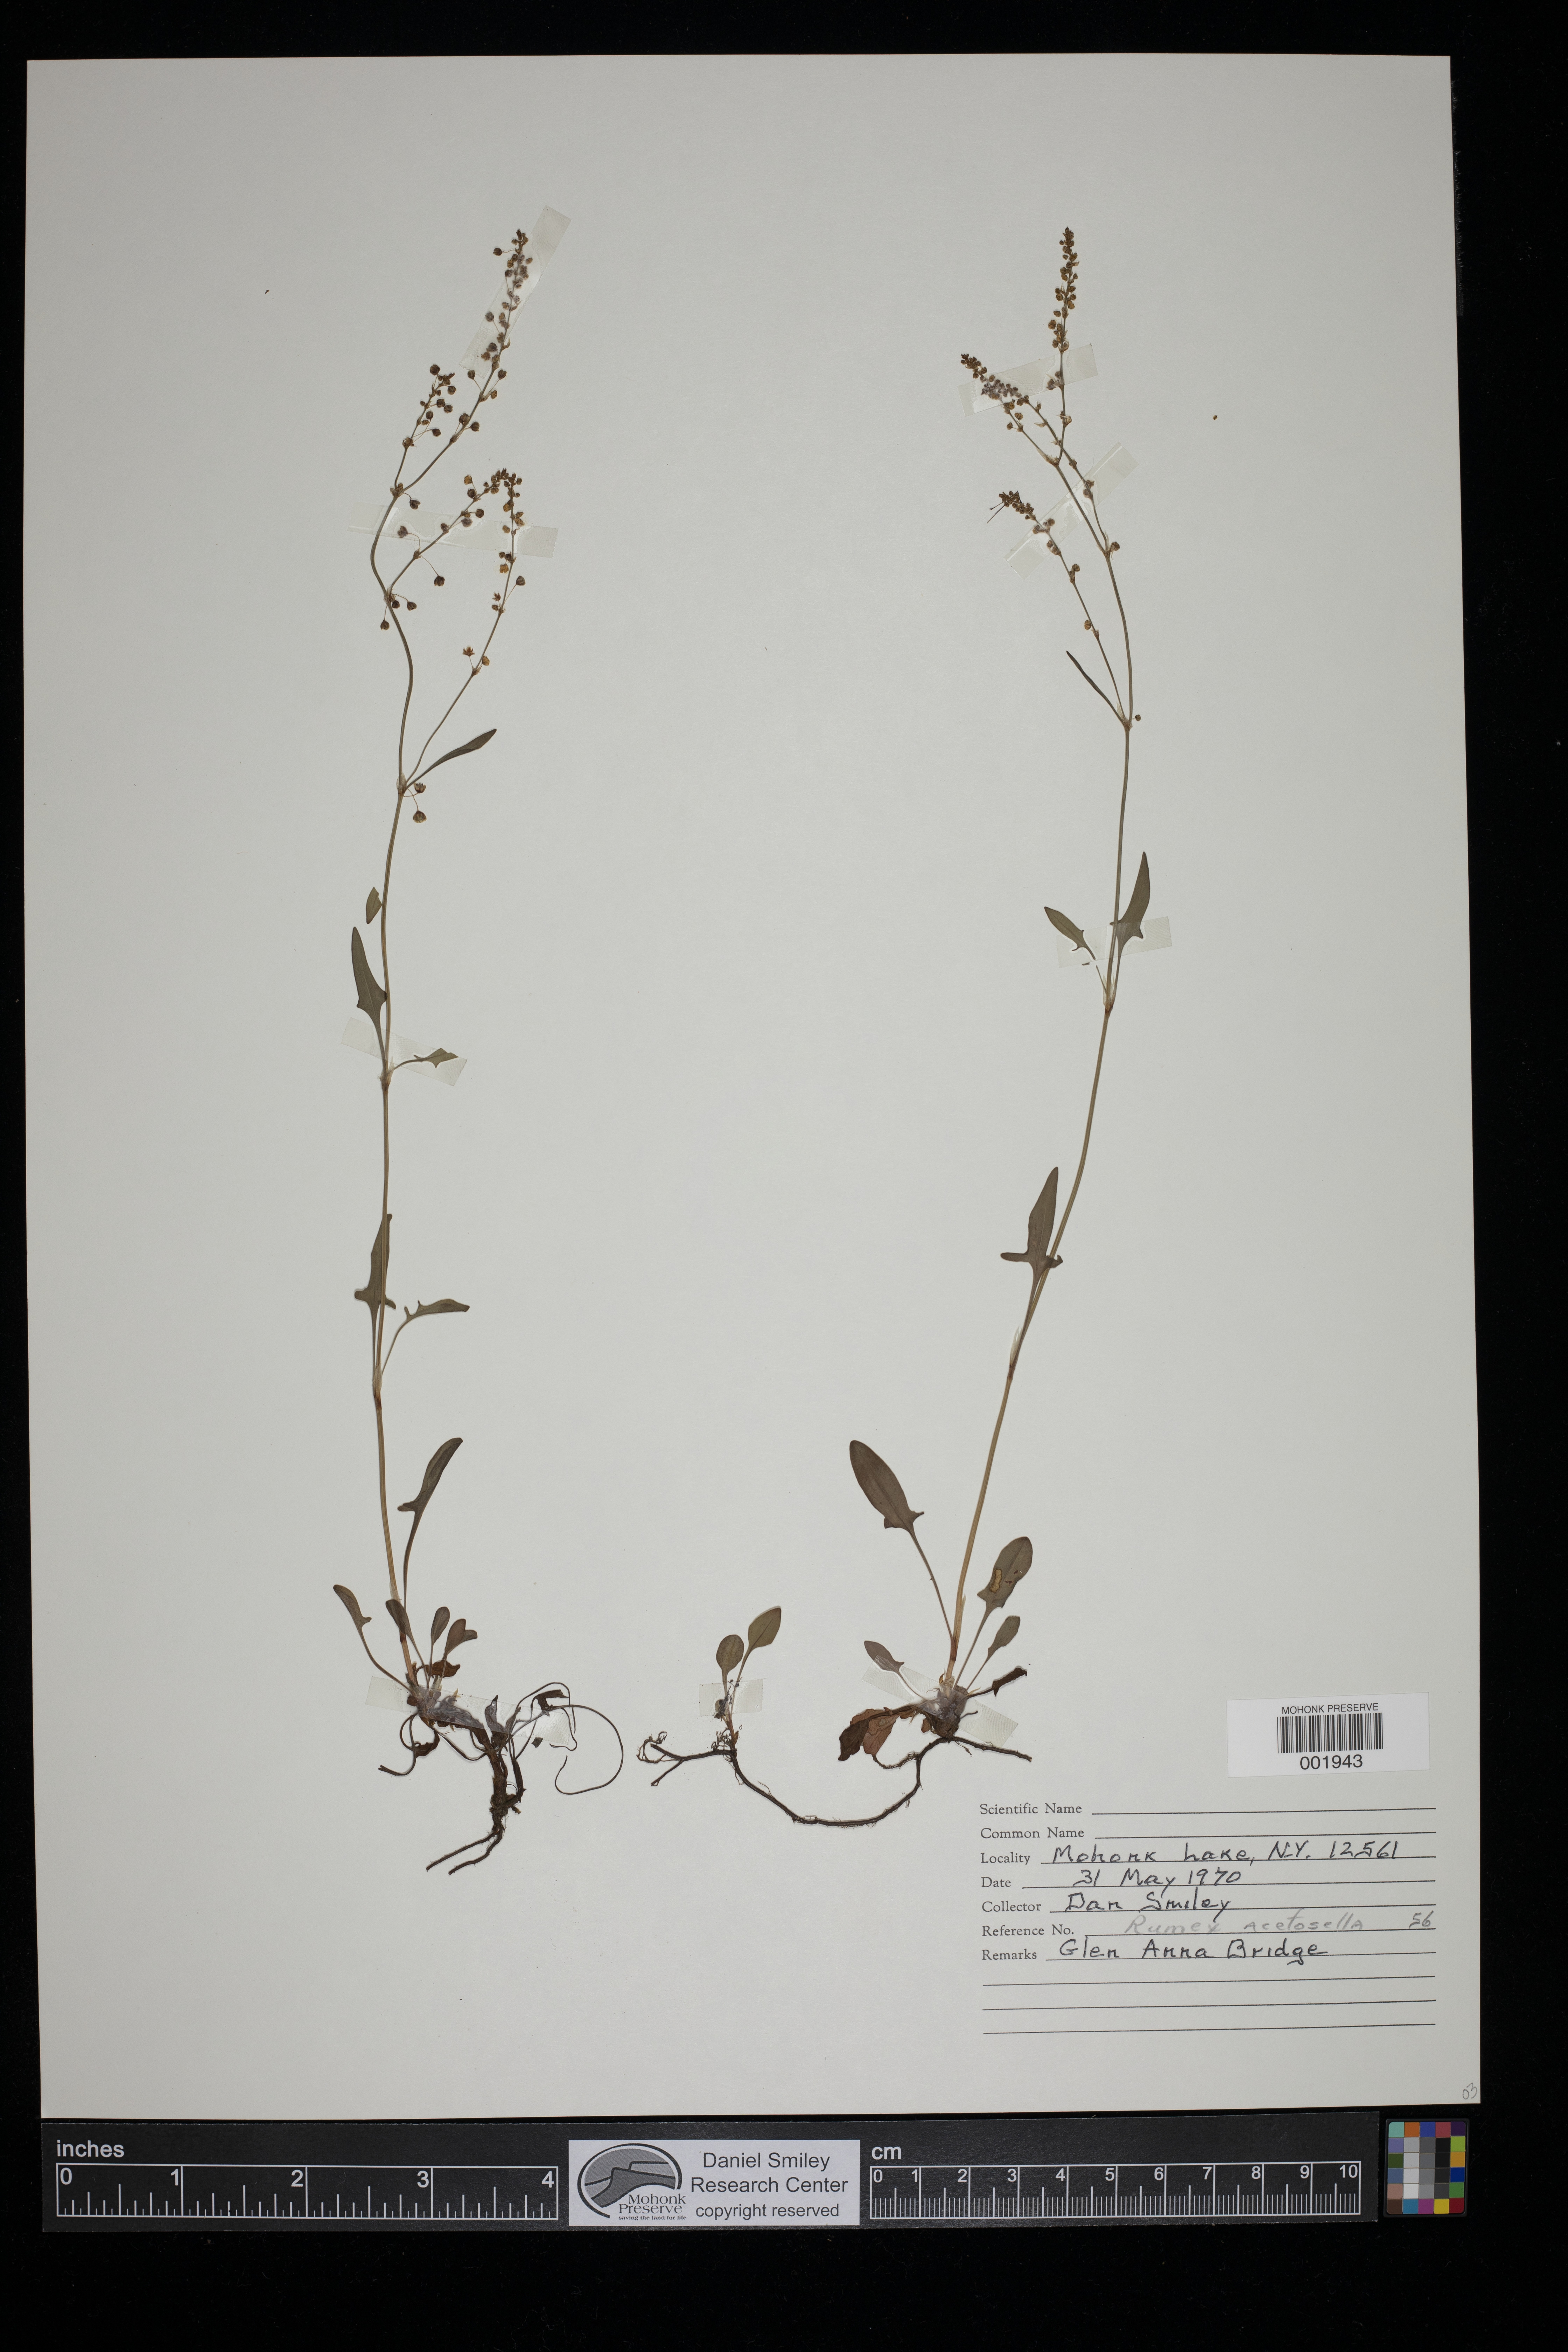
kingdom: Plantae
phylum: Tracheophyta
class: Magnoliopsida
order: Caryophyllales
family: Polygonaceae
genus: Rumex
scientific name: Rumex acetosella
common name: Common sheep sorrel
